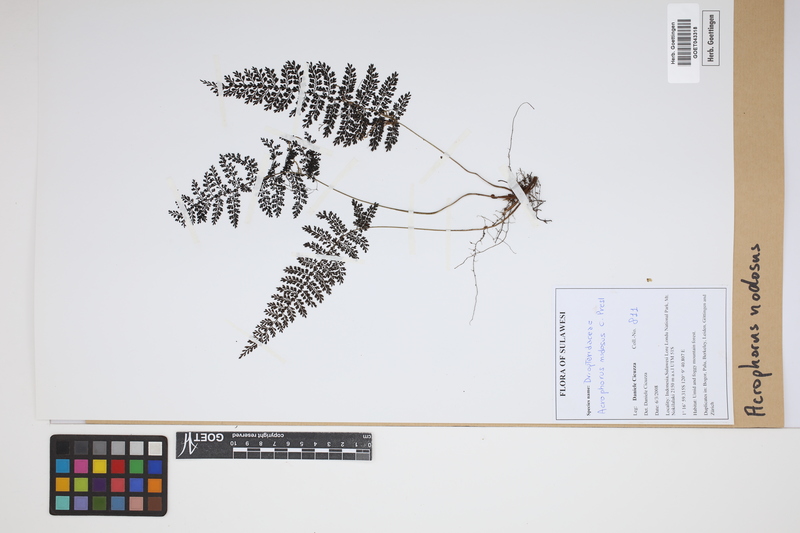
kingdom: Plantae
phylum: Tracheophyta
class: Polypodiopsida
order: Polypodiales
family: Dryopteridaceae
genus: Dryopteris
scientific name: Dryopteris nodosa
